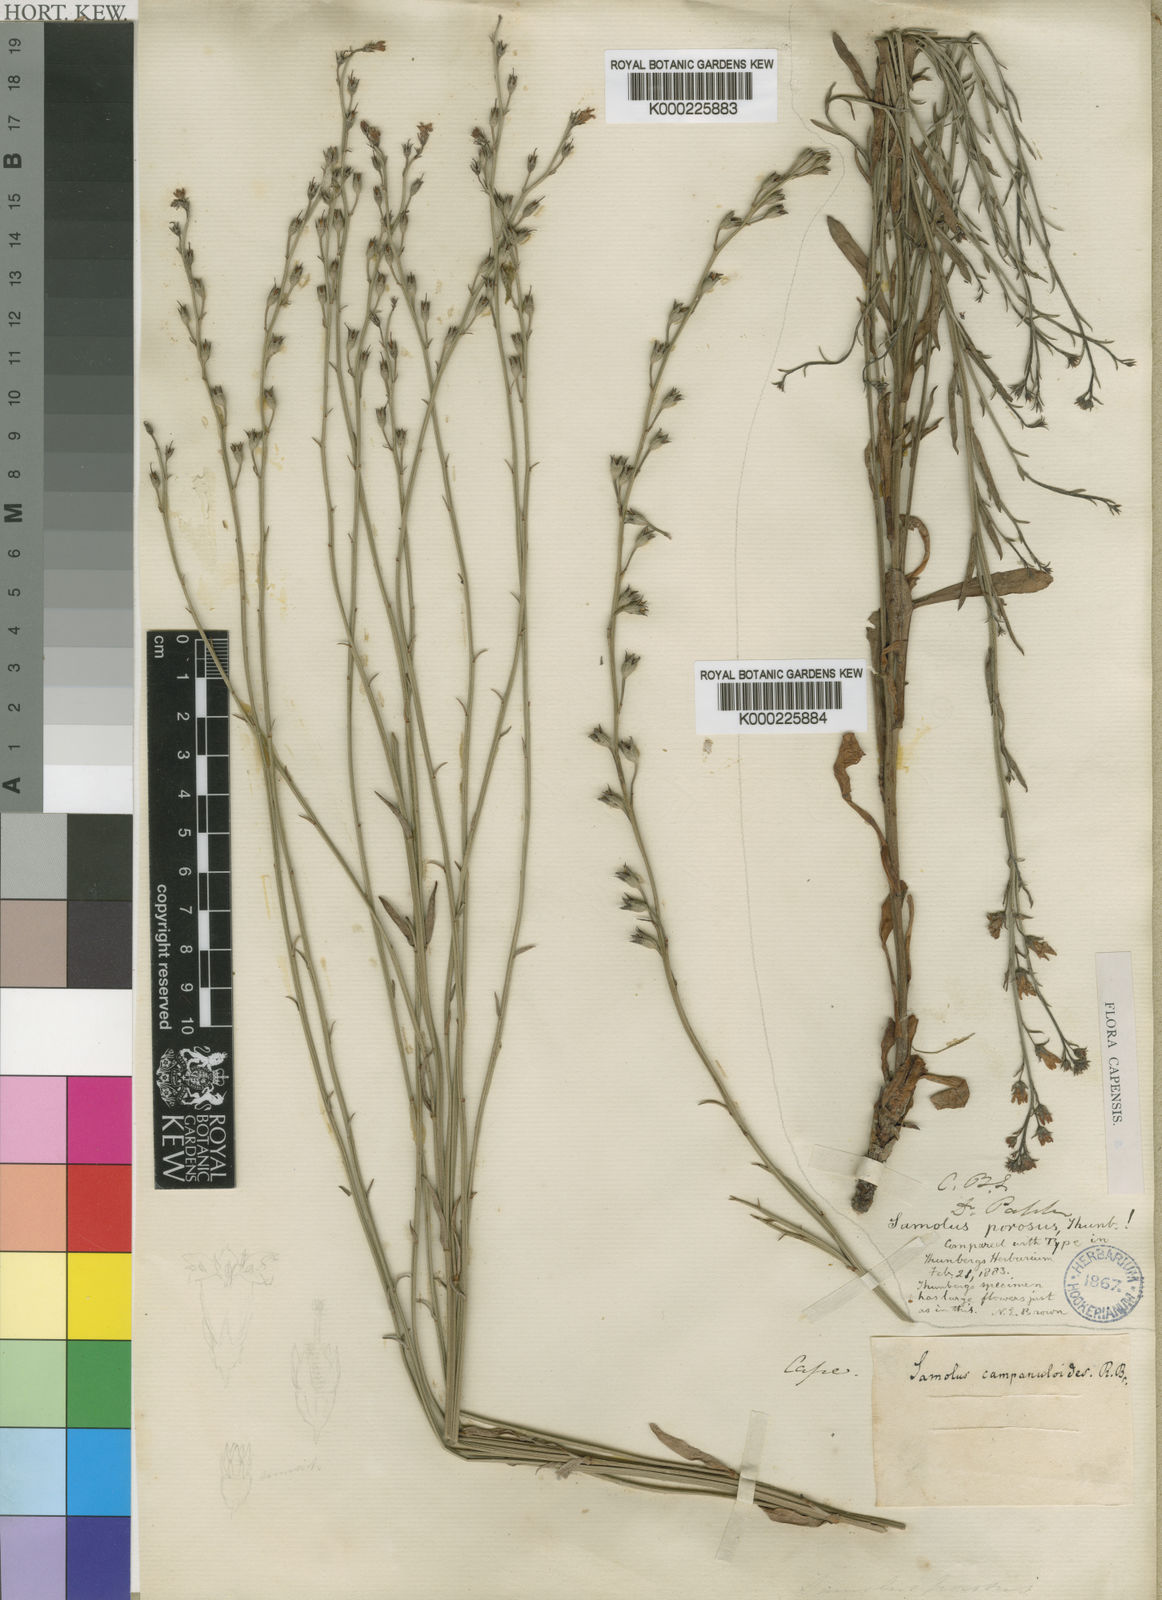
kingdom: Plantae
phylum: Tracheophyta
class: Magnoliopsida
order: Ericales
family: Primulaceae
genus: Samolus
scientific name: Samolus porosus
